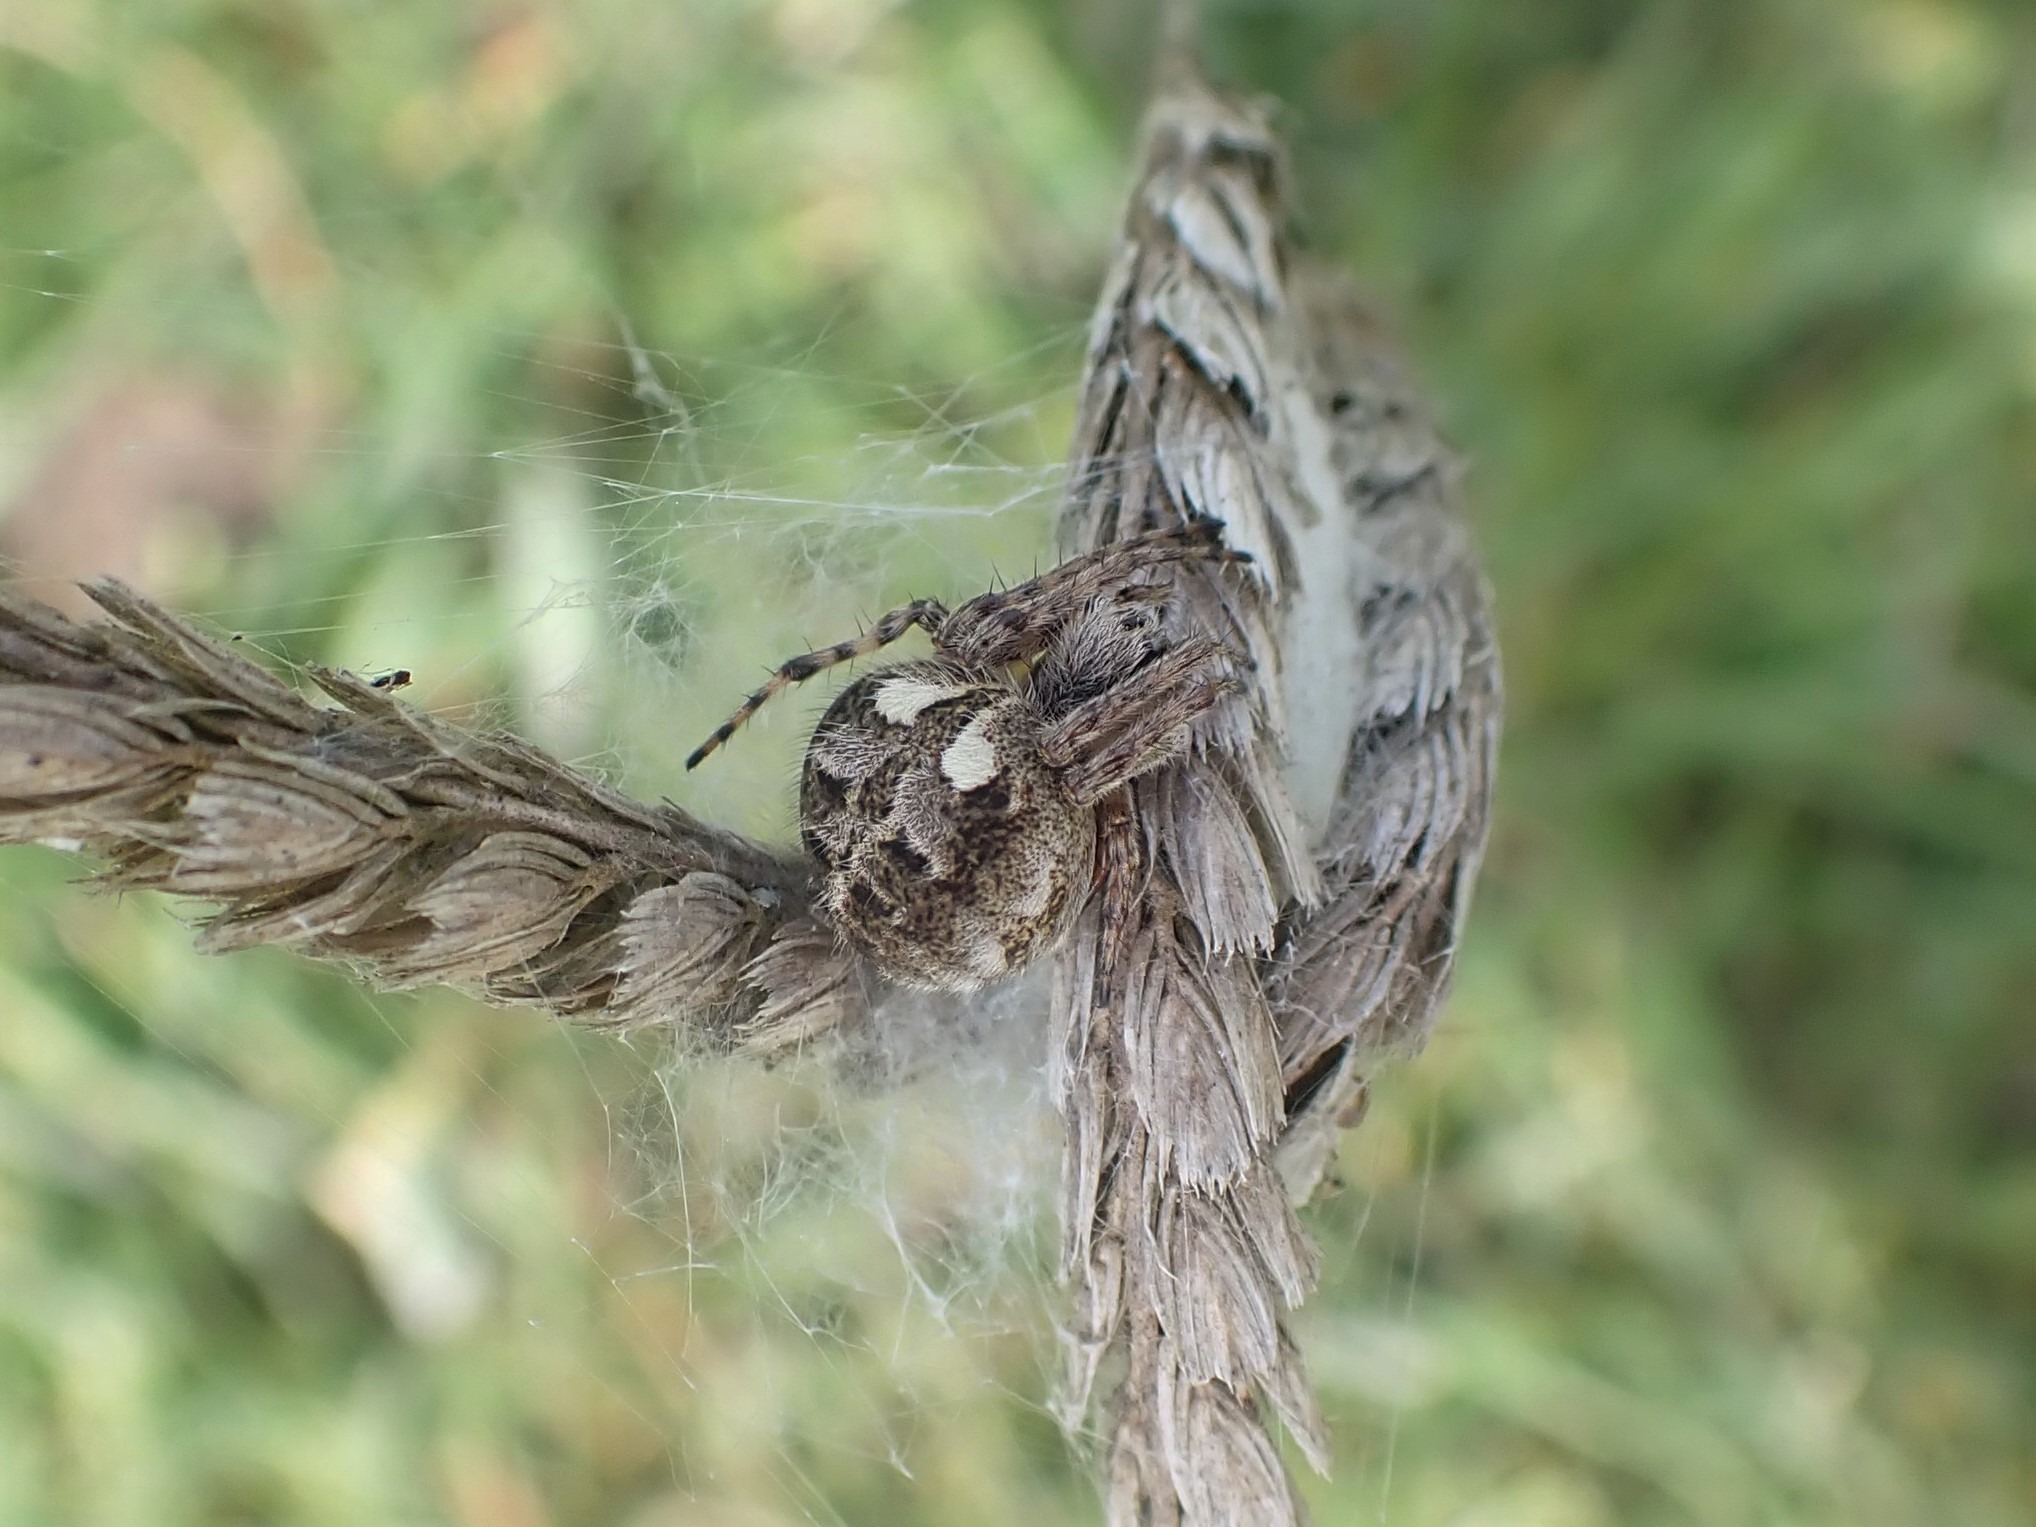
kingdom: Animalia
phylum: Arthropoda
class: Arachnida
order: Araneae
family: Araneidae
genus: Agalenatea
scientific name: Agalenatea redii
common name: Lodden hjulspinder
